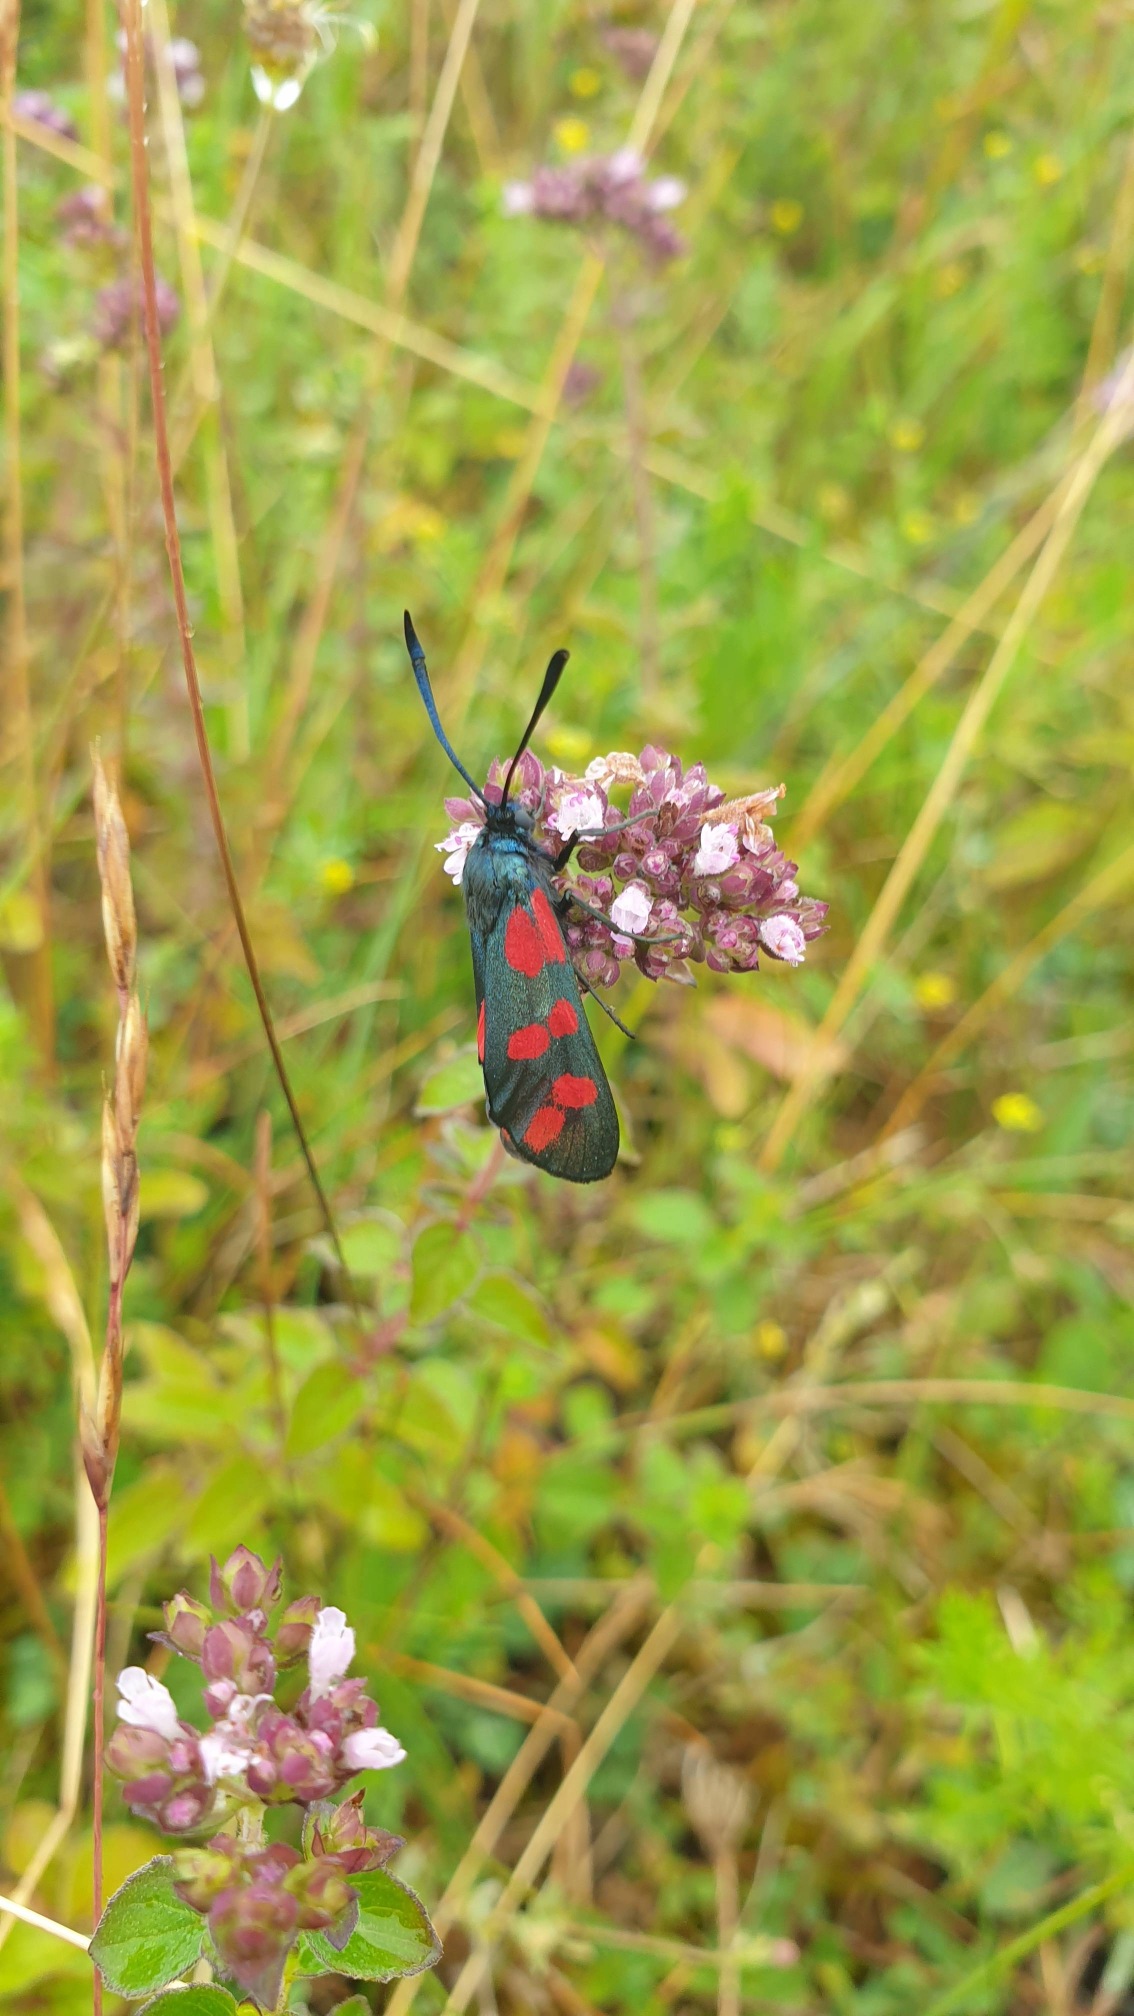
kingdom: Animalia
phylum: Arthropoda
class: Insecta
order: Lepidoptera
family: Zygaenidae
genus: Zygaena
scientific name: Zygaena filipendulae
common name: Seksplettet køllesværmer
